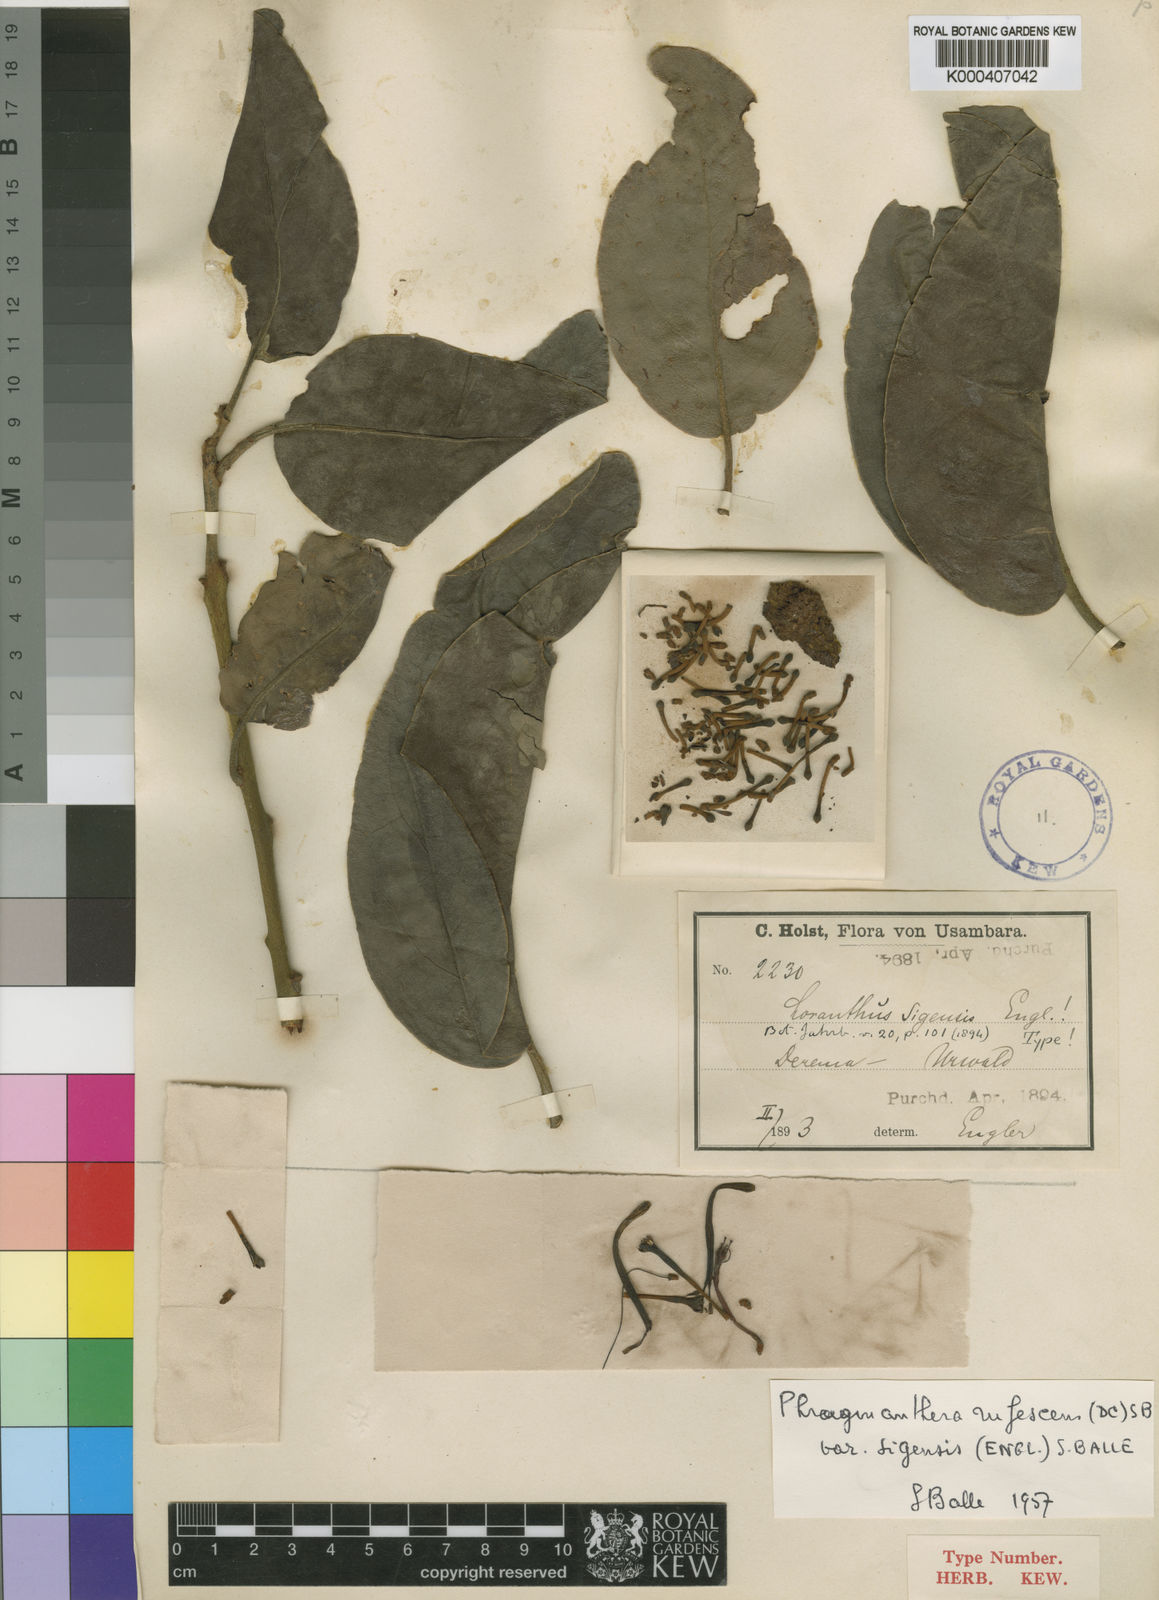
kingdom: Plantae
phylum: Tracheophyta
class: Magnoliopsida
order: Santalales
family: Loranthaceae
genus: Phragmanthera
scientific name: Phragmanthera usuiensis
